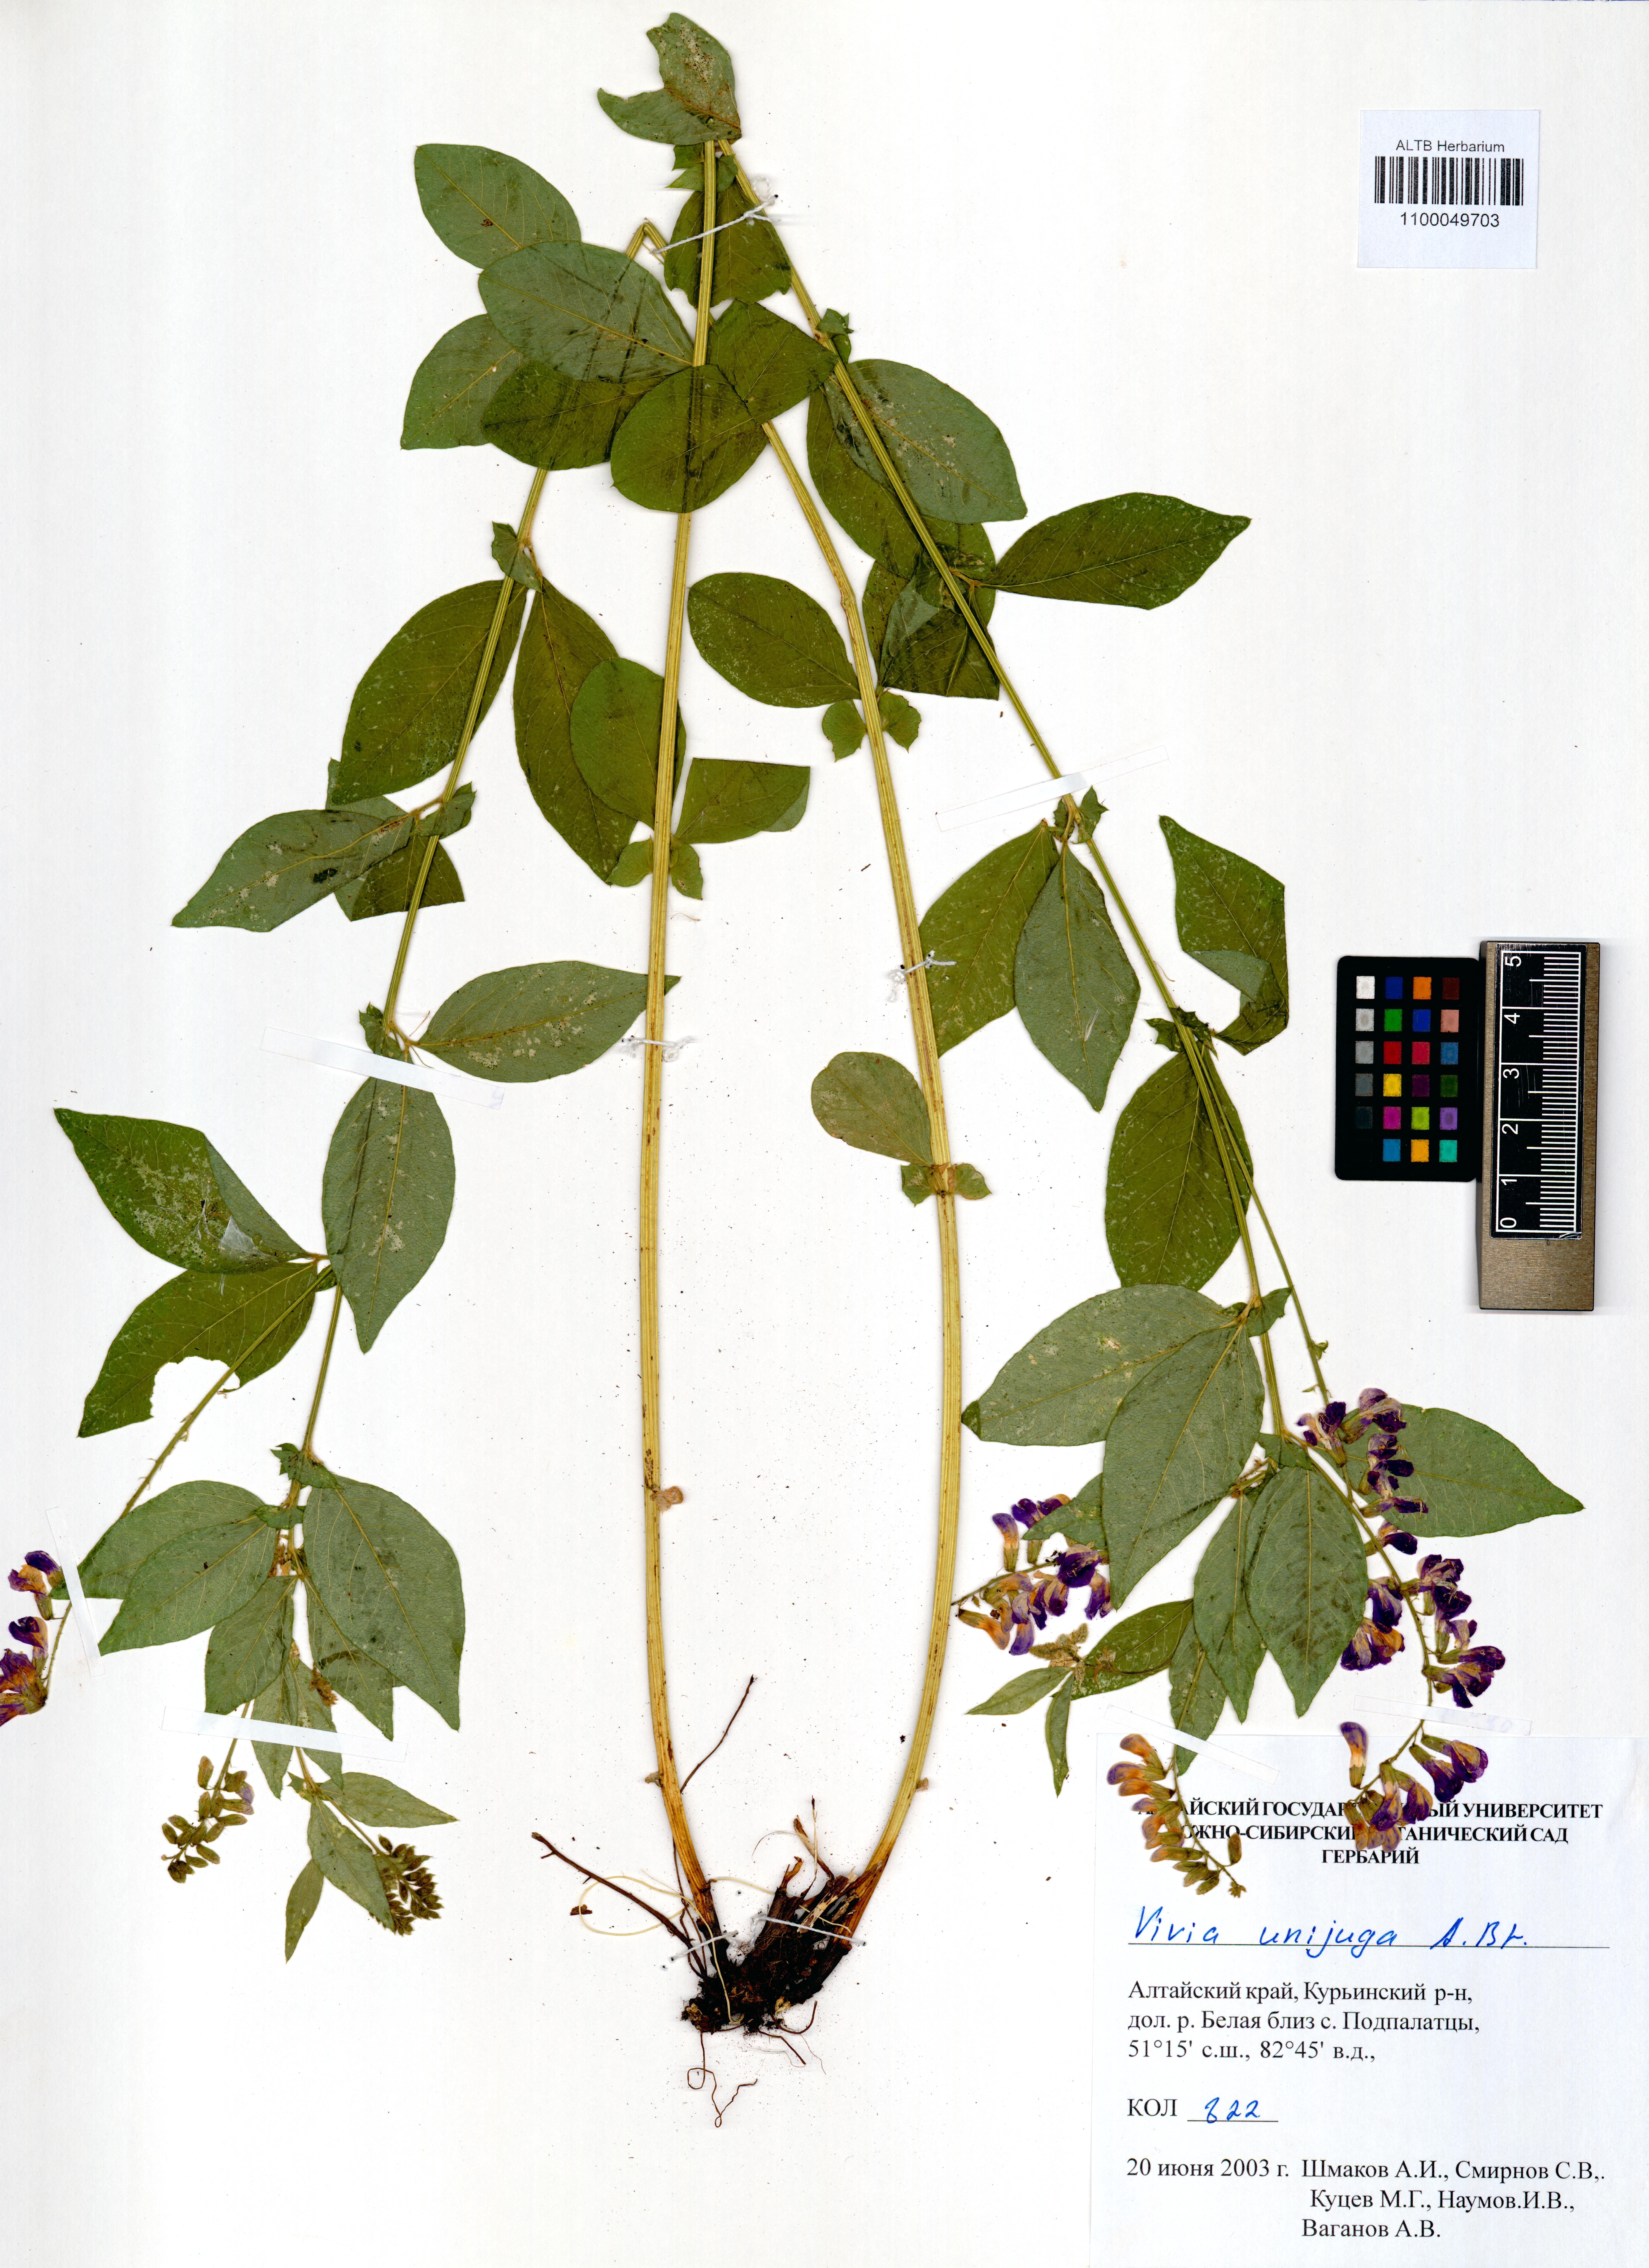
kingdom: Plantae
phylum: Tracheophyta
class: Magnoliopsida
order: Fabales
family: Fabaceae
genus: Vicia
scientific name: Vicia unijuga
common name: Two-leaf vetch
